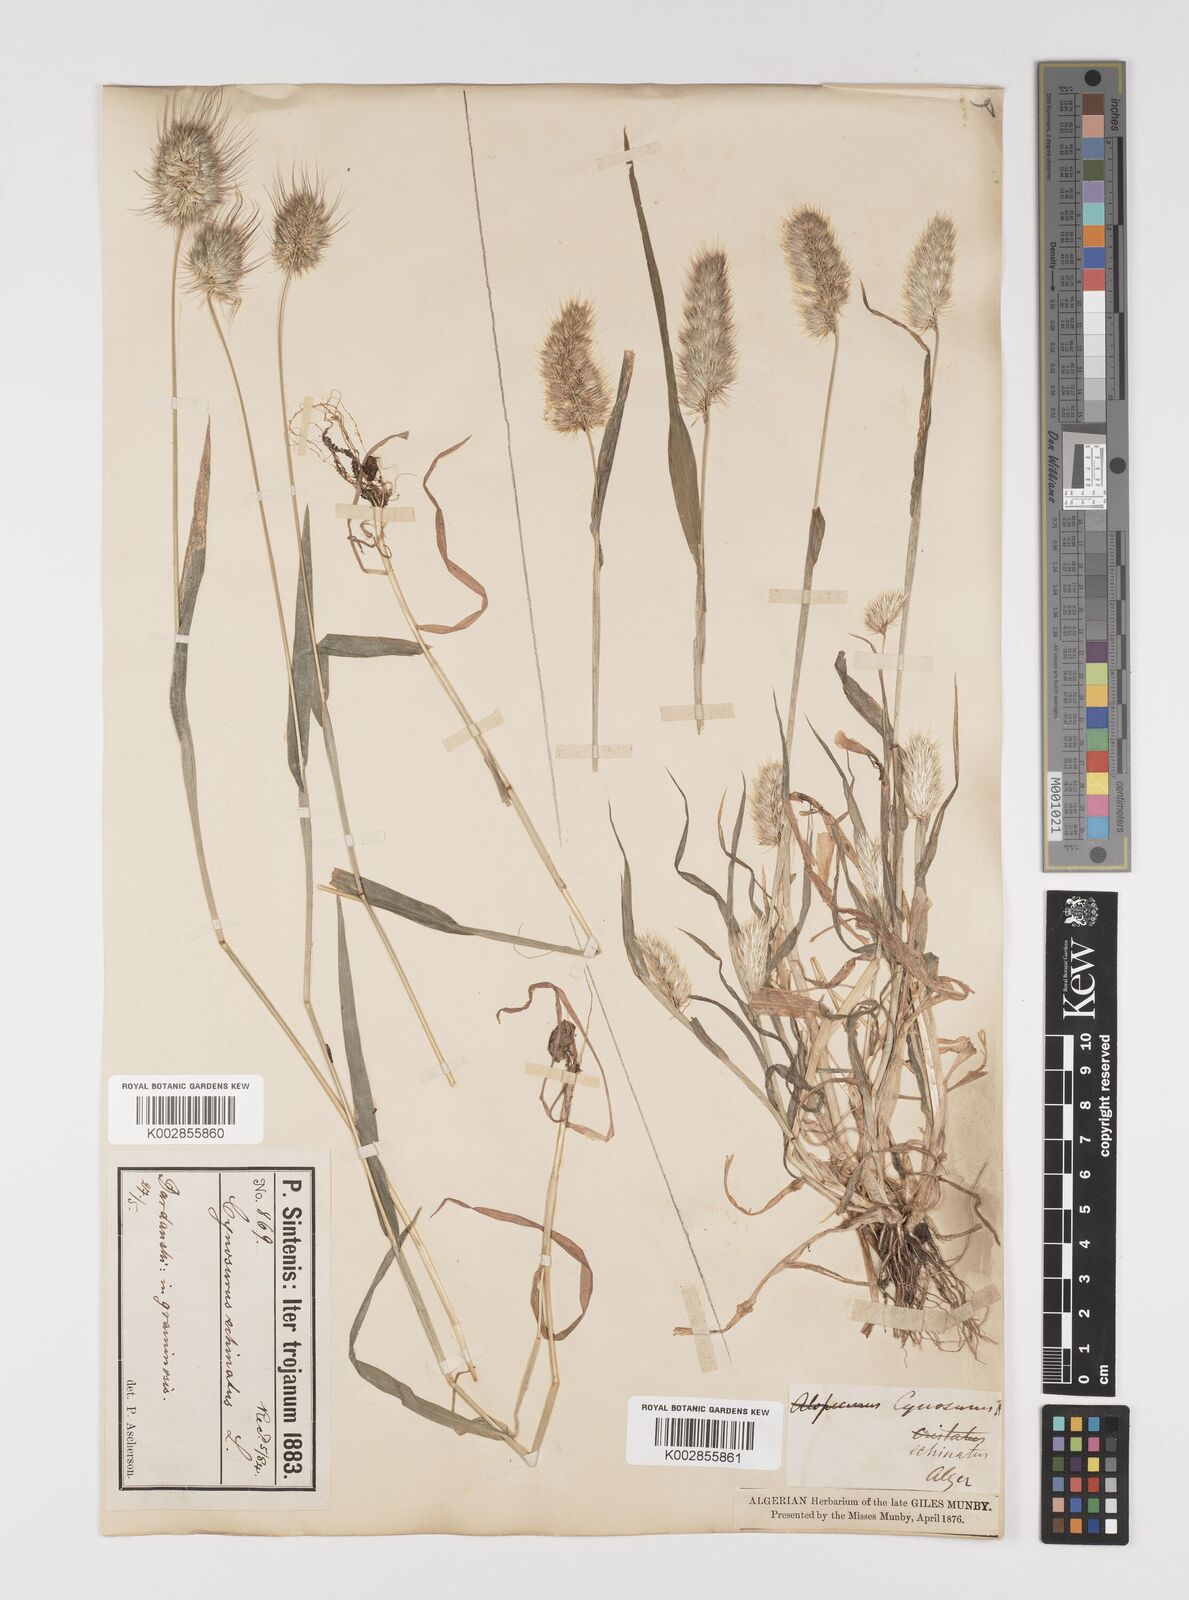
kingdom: Plantae
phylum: Tracheophyta
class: Liliopsida
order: Poales
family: Poaceae
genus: Cynosurus
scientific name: Cynosurus echinatus
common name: Rough dog's-tail
